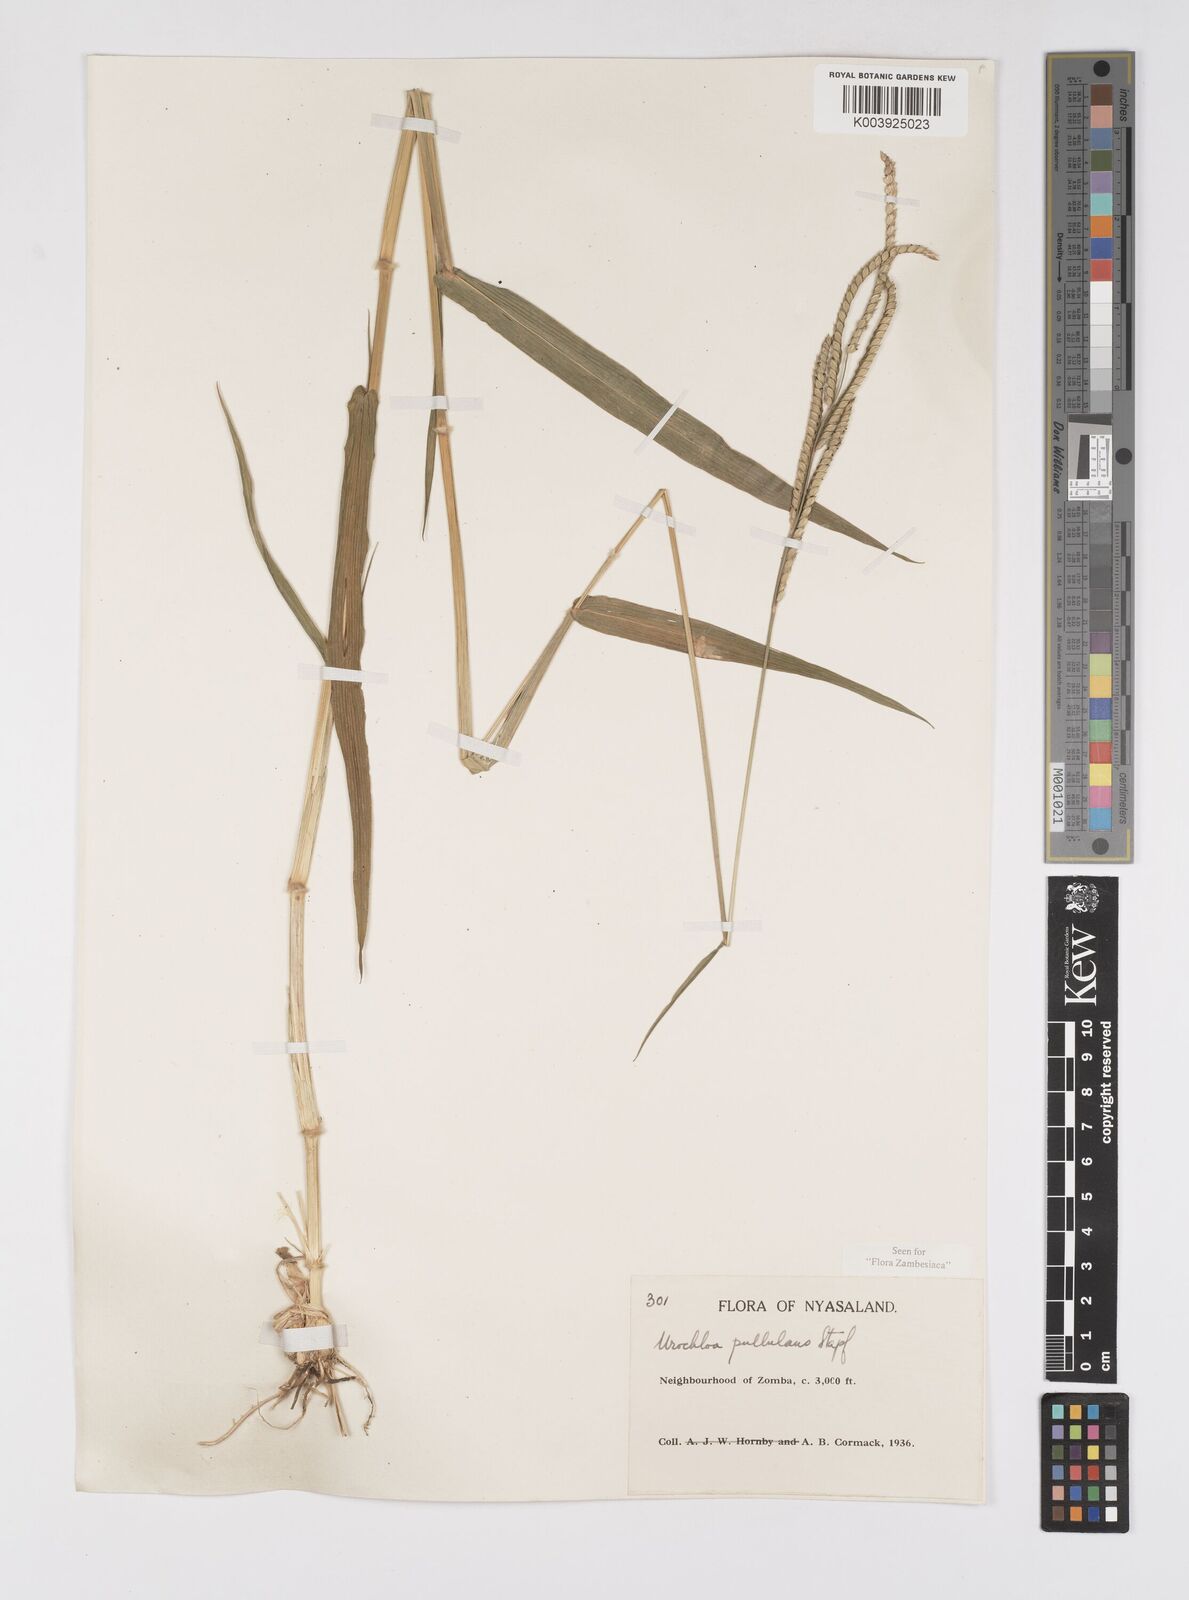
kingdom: Plantae
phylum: Tracheophyta
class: Liliopsida
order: Poales
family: Poaceae
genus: Urochloa
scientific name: Urochloa trichopus
